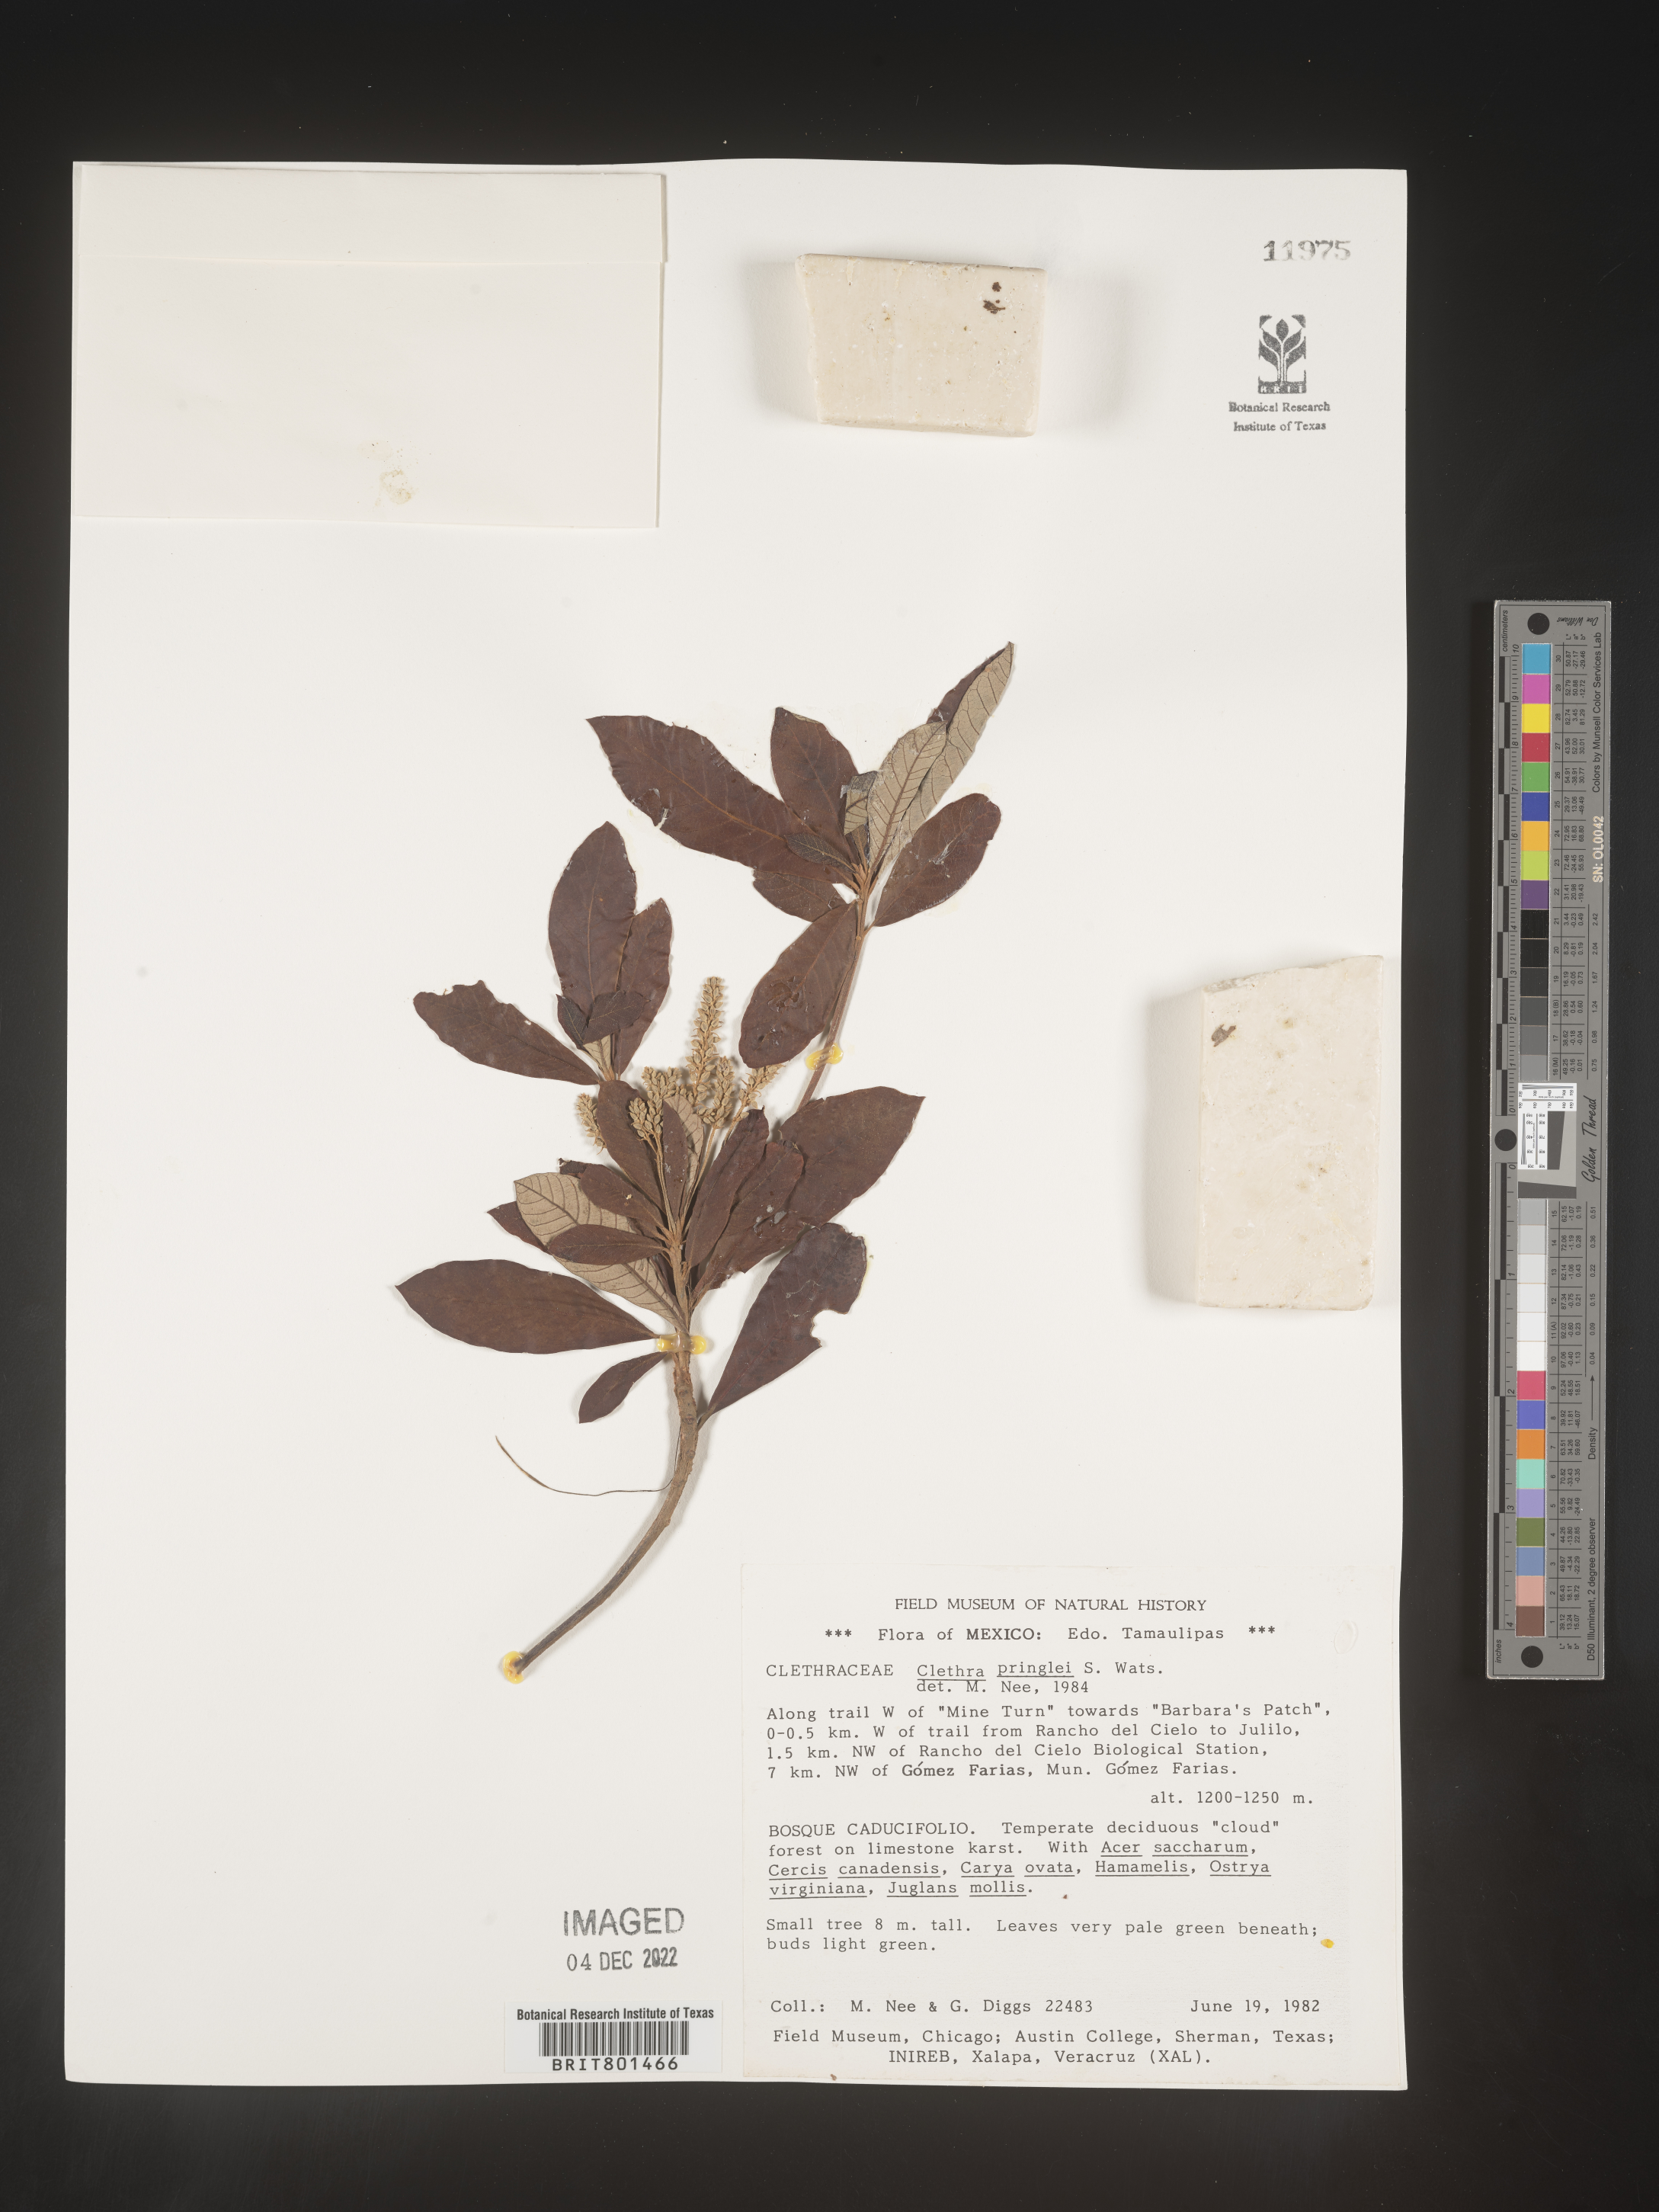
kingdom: Plantae
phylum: Tracheophyta
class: Magnoliopsida
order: Ericales
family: Clethraceae
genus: Clethra
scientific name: Clethra
